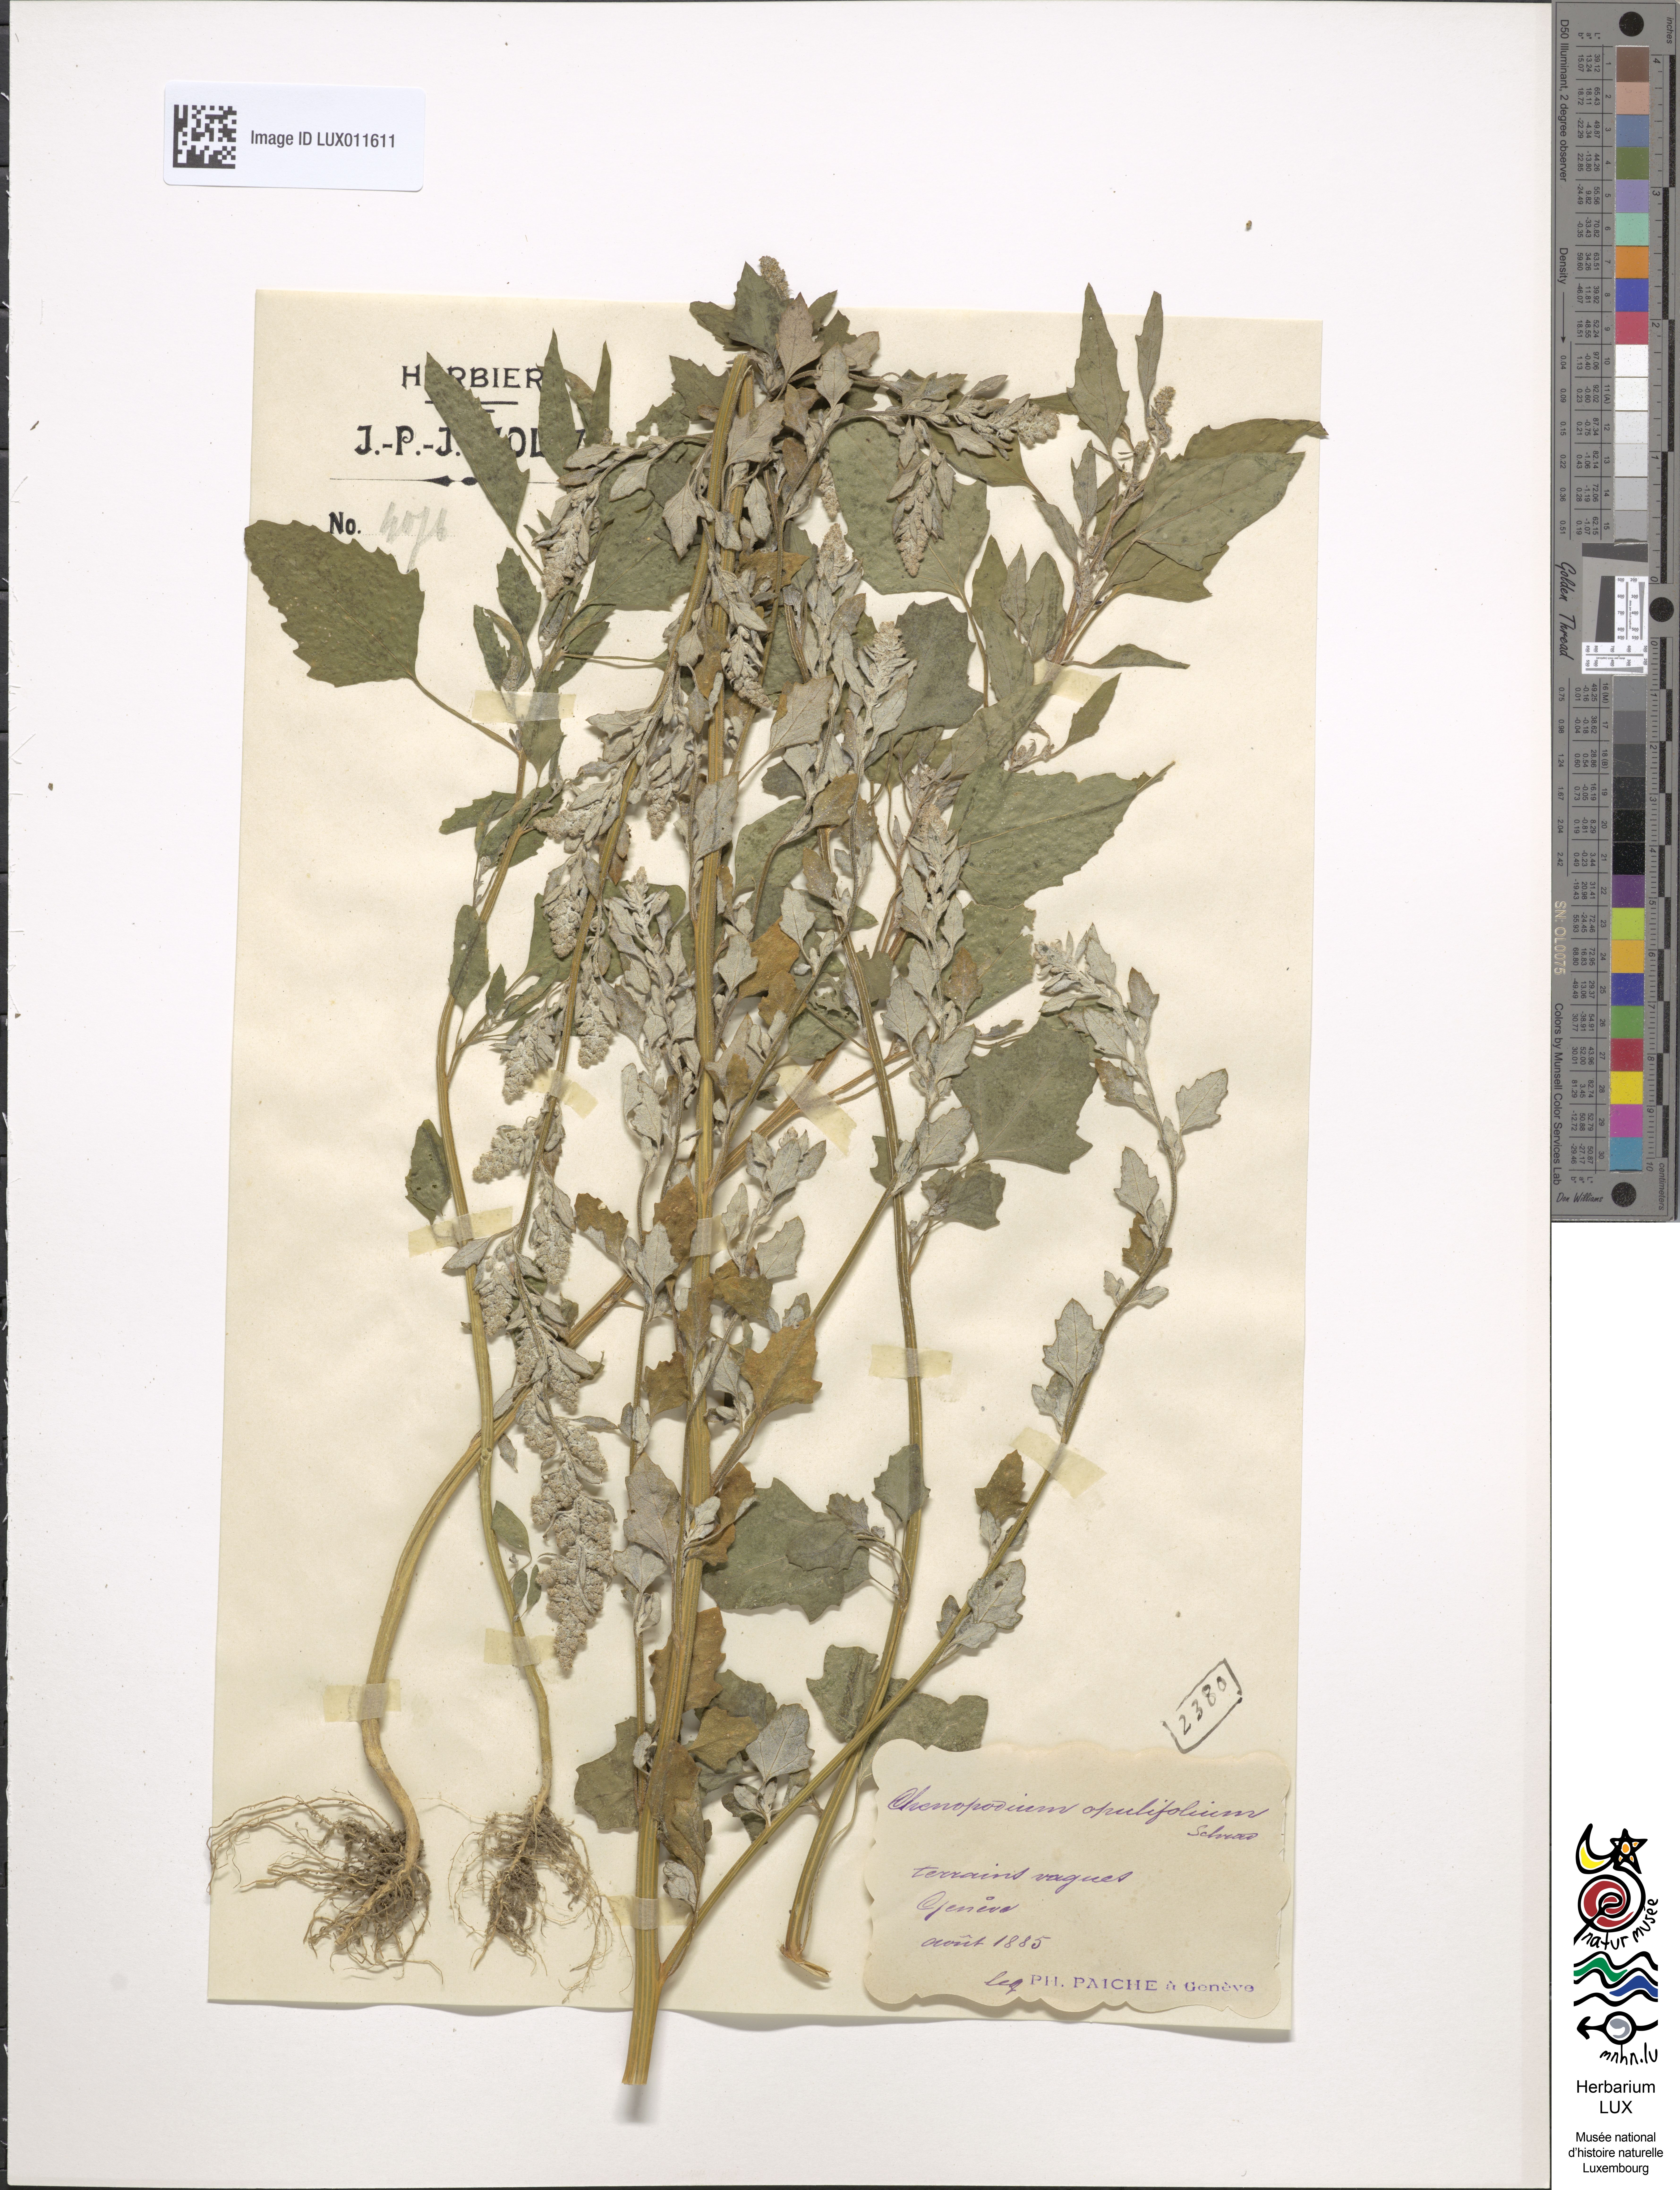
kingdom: Plantae
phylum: Tracheophyta
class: Magnoliopsida
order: Caryophyllales
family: Amaranthaceae
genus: Chenopodium
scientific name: Chenopodium opulifolium
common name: Grey goosefoot
